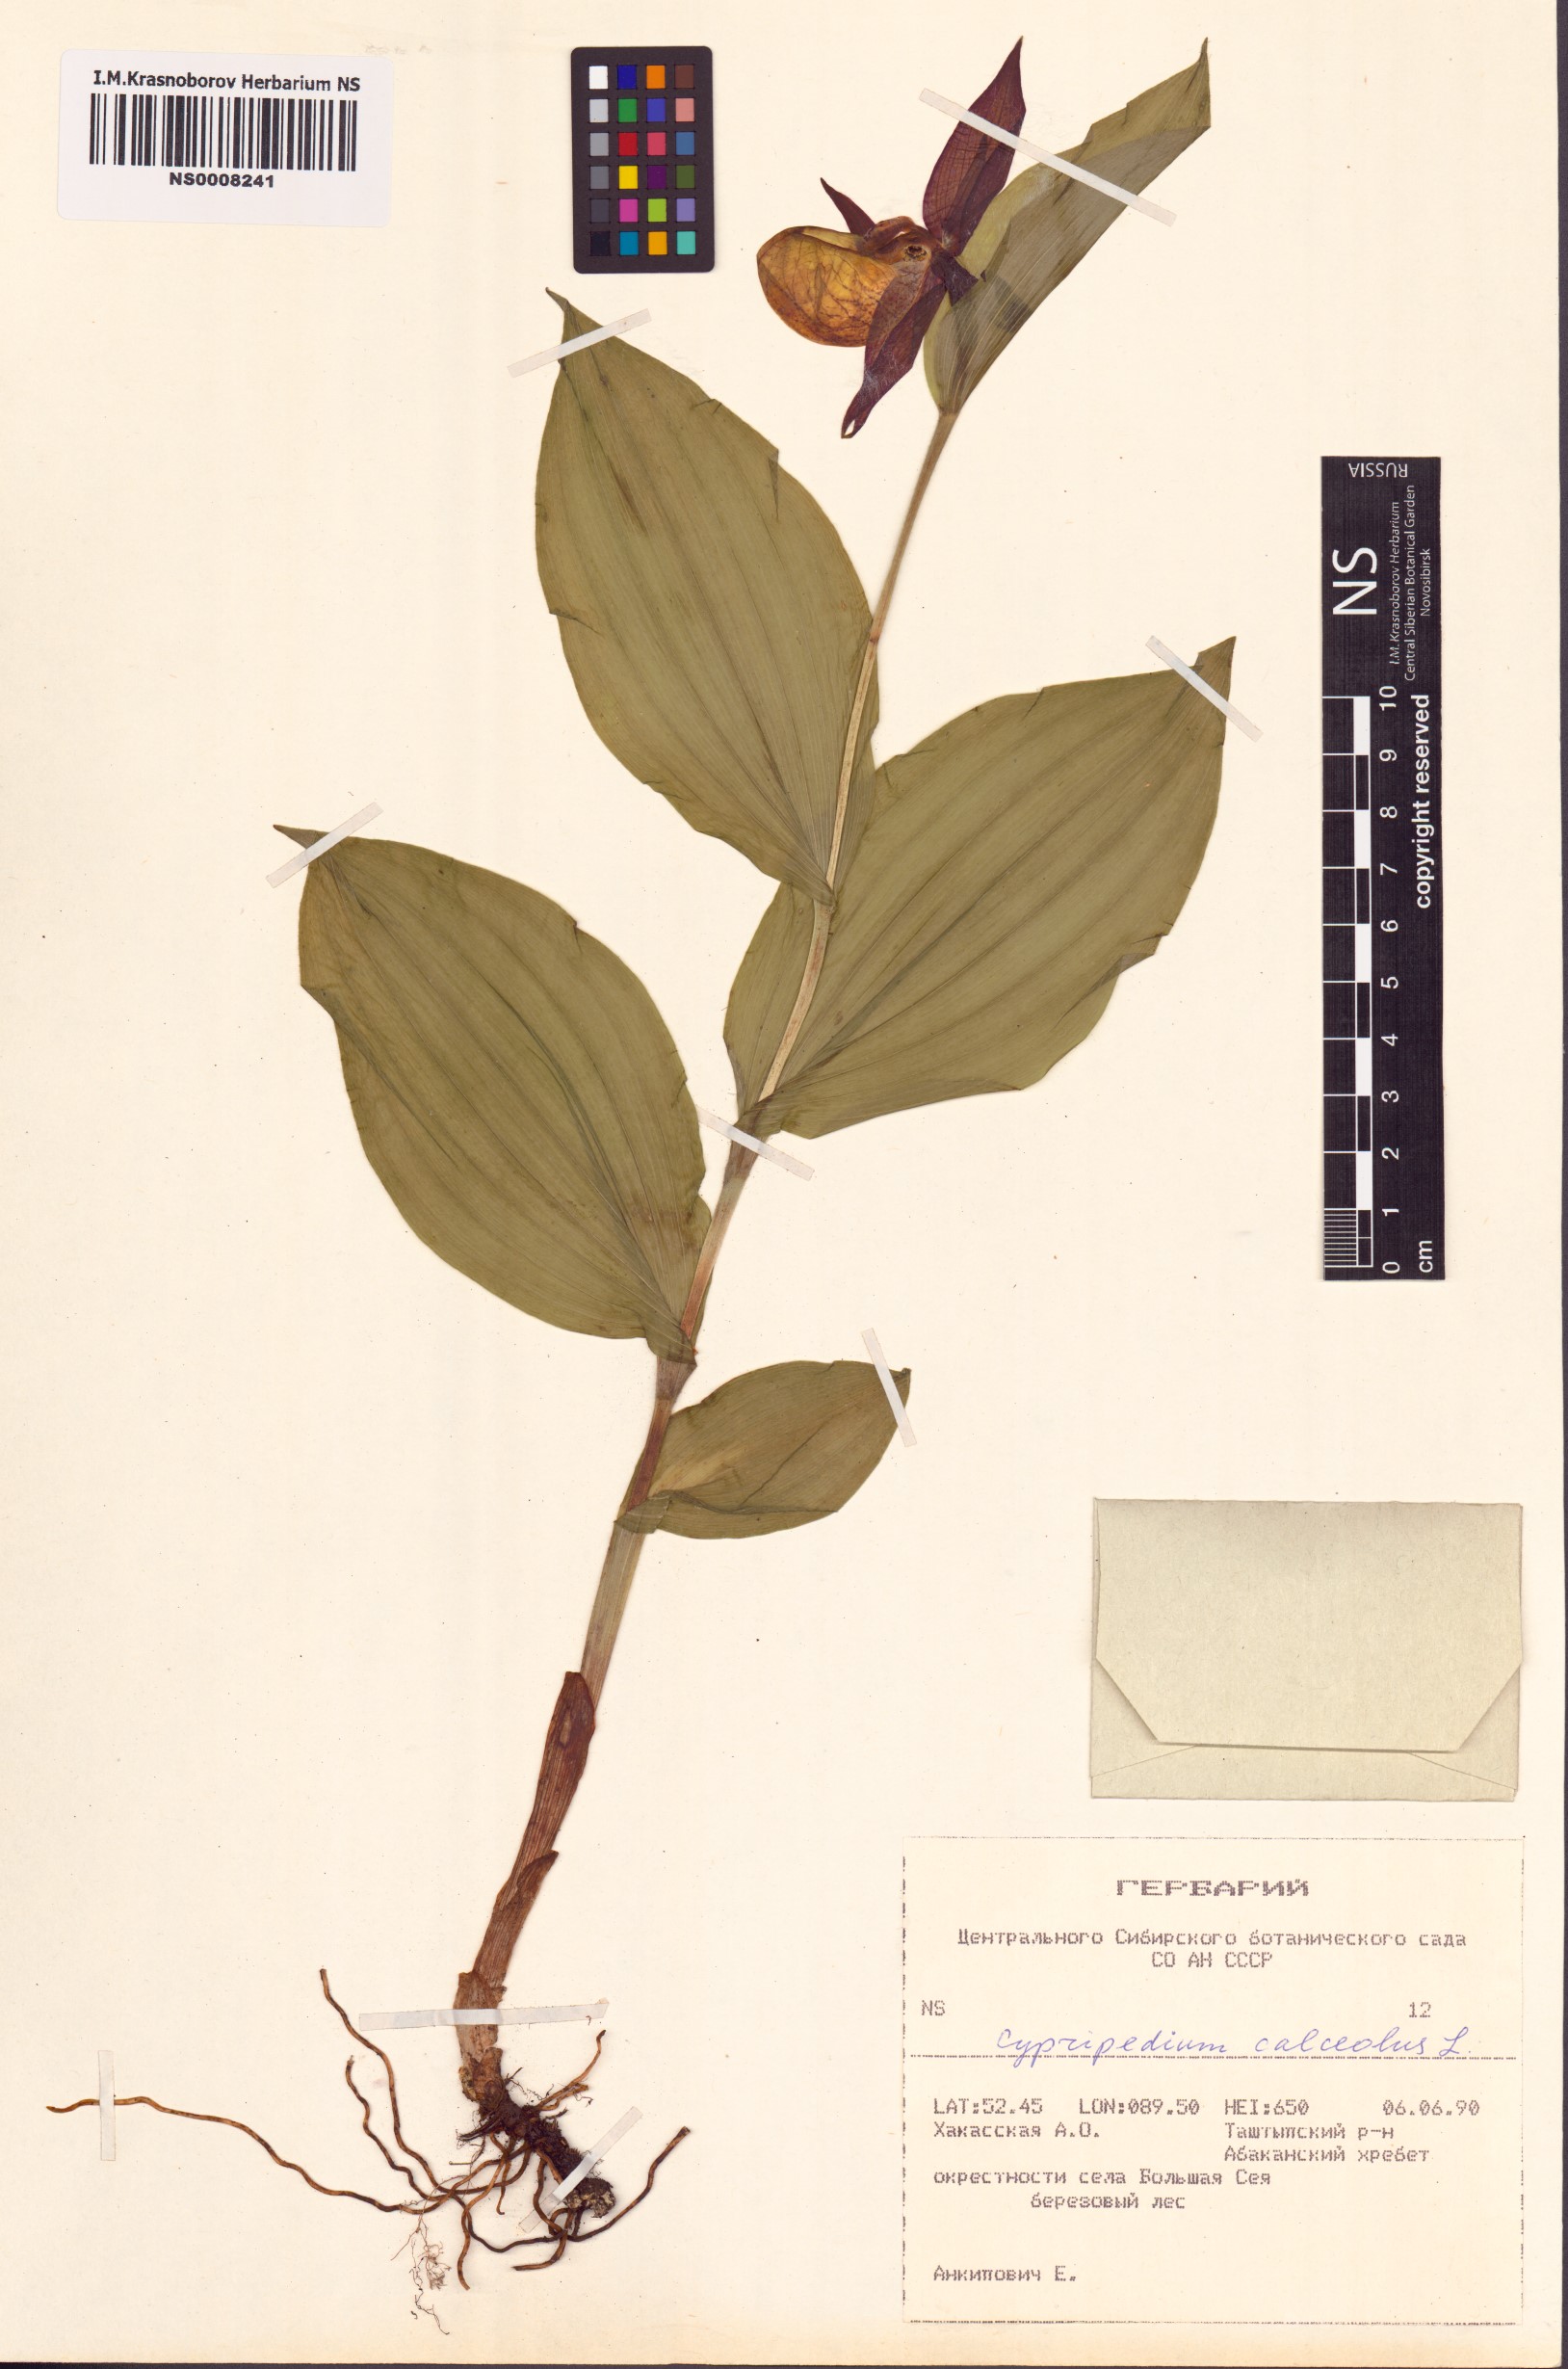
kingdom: Plantae
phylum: Tracheophyta
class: Liliopsida
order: Asparagales
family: Orchidaceae
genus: Cypripedium
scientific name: Cypripedium calceolus
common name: Lady's-slipper
